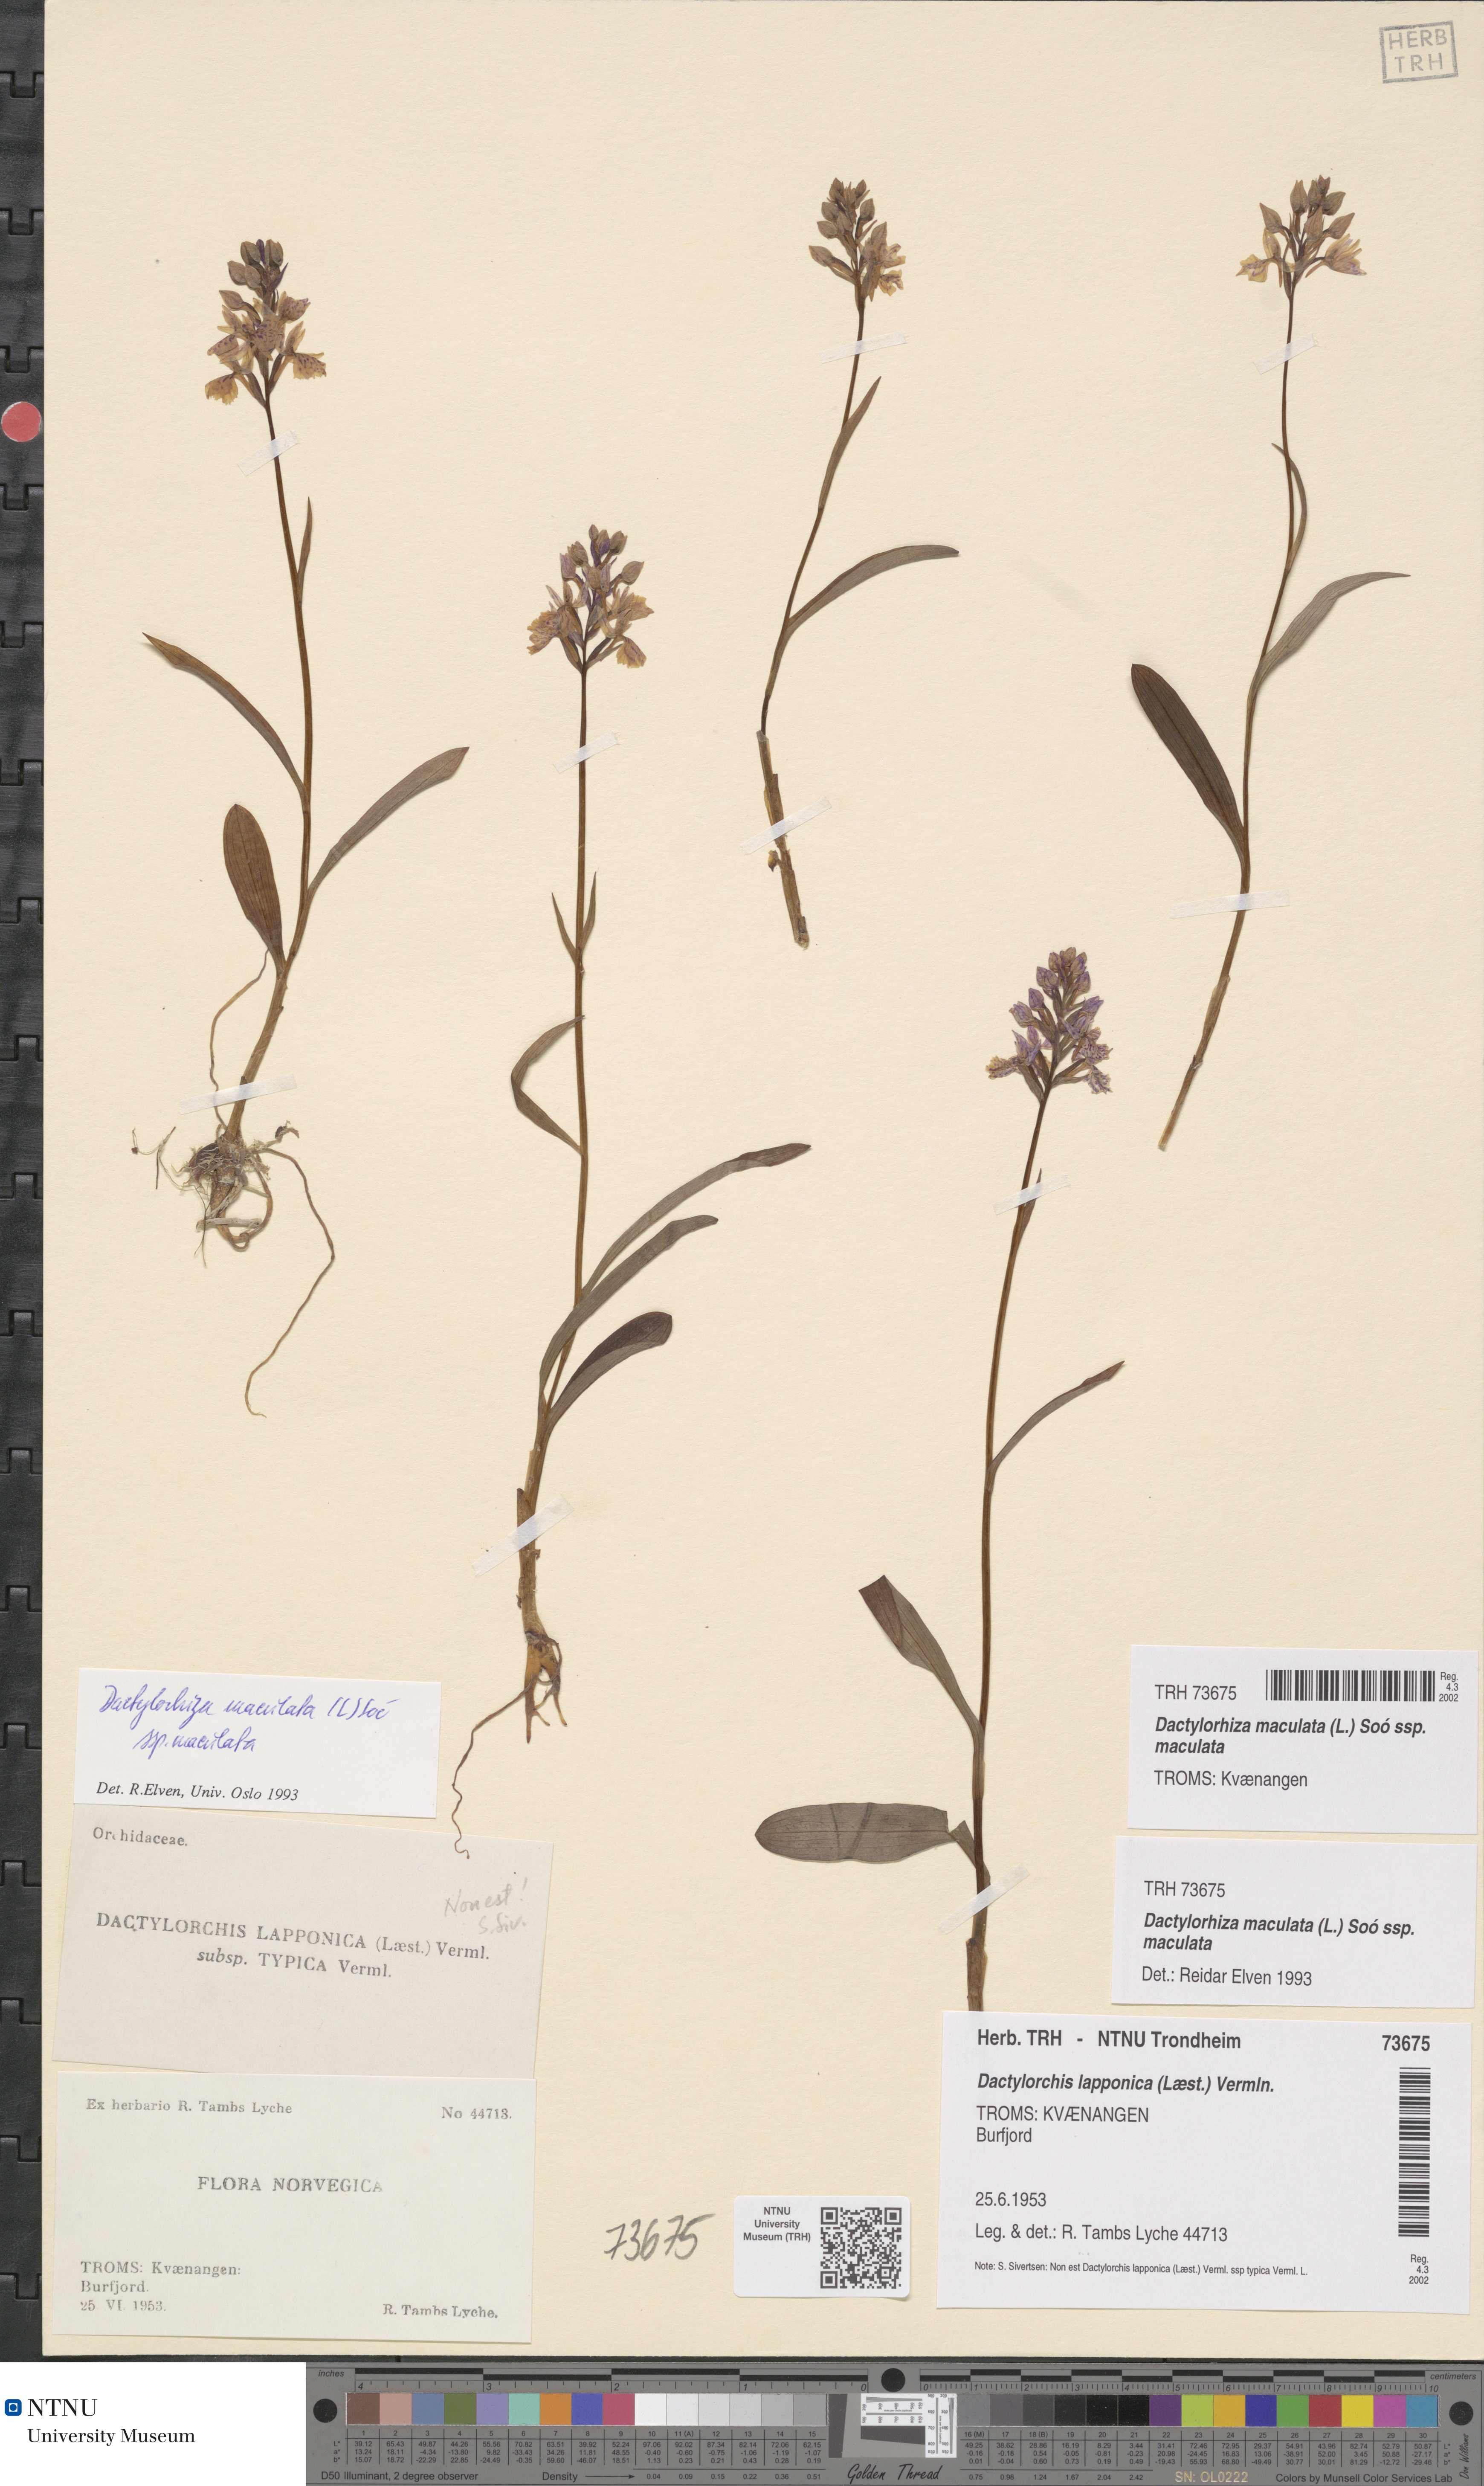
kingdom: Plantae
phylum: Tracheophyta
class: Liliopsida
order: Asparagales
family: Orchidaceae
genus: Dactylorhiza
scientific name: Dactylorhiza maculata
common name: Heath spotted-orchid
